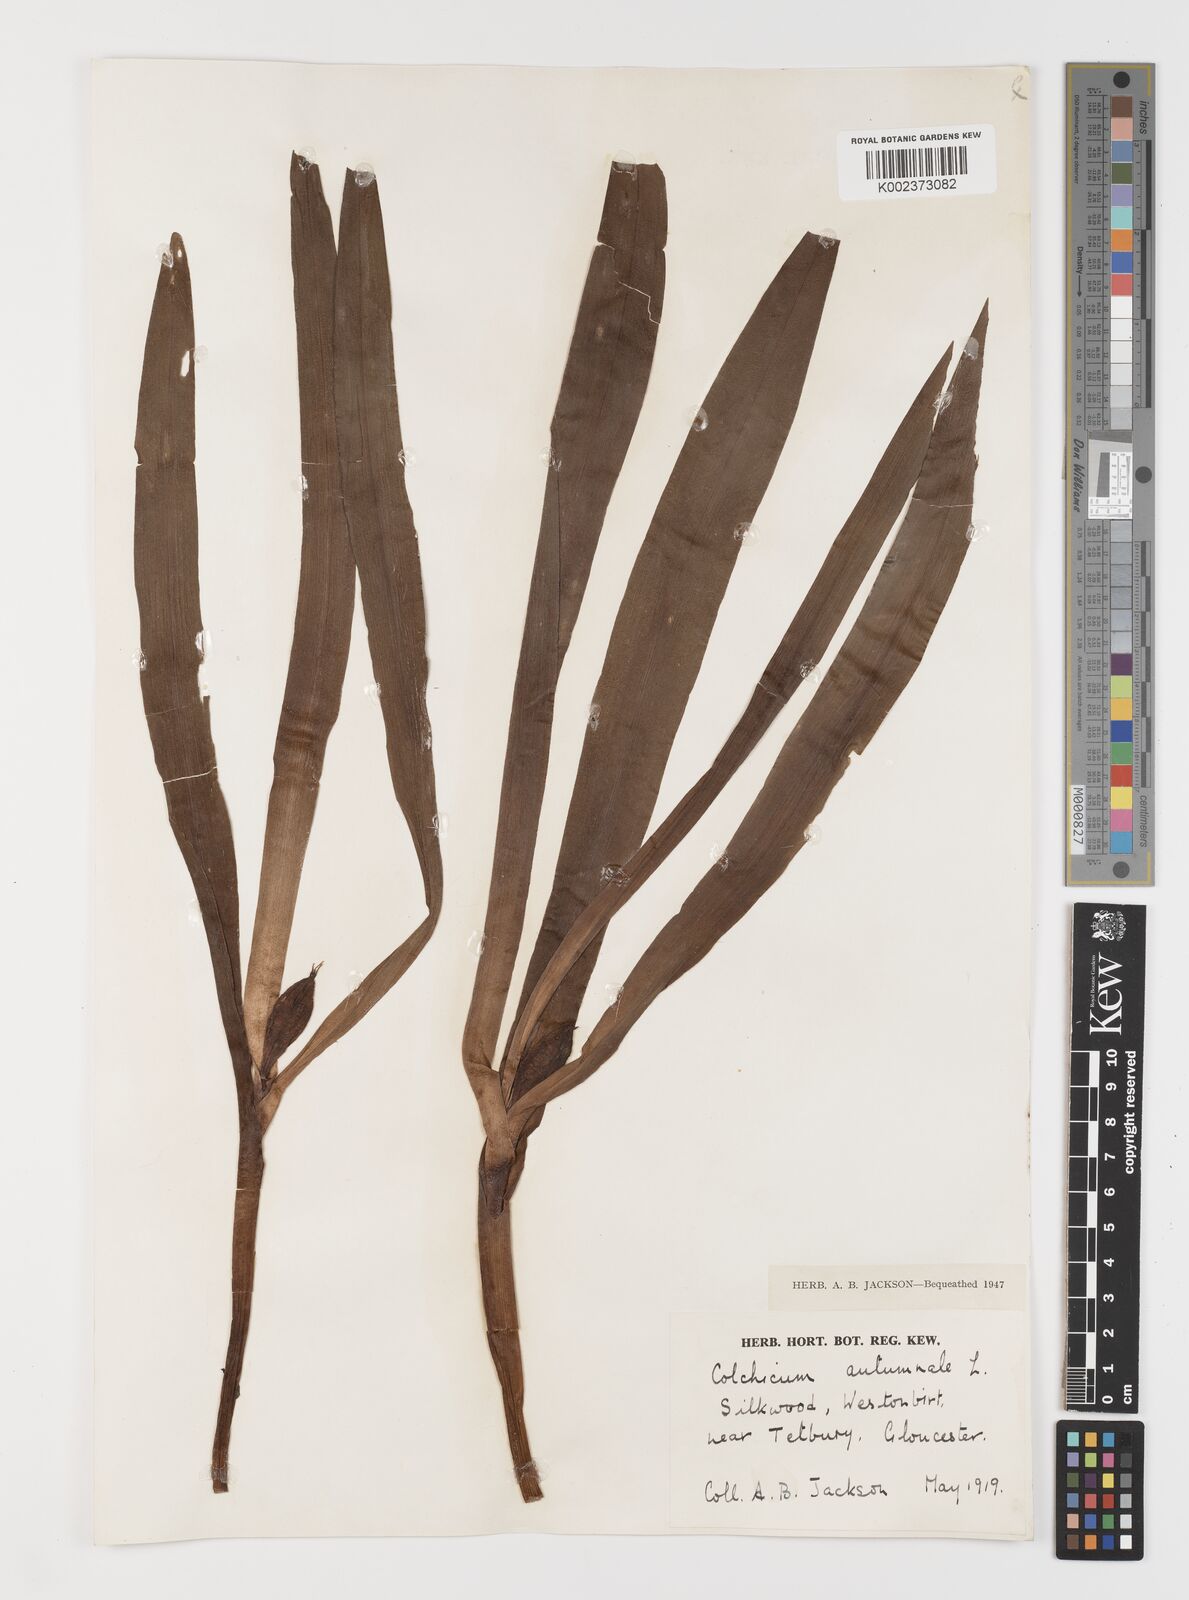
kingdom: Plantae
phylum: Tracheophyta
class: Liliopsida
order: Liliales
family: Colchicaceae
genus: Colchicum
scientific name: Colchicum autumnale
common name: Autumn crocus
